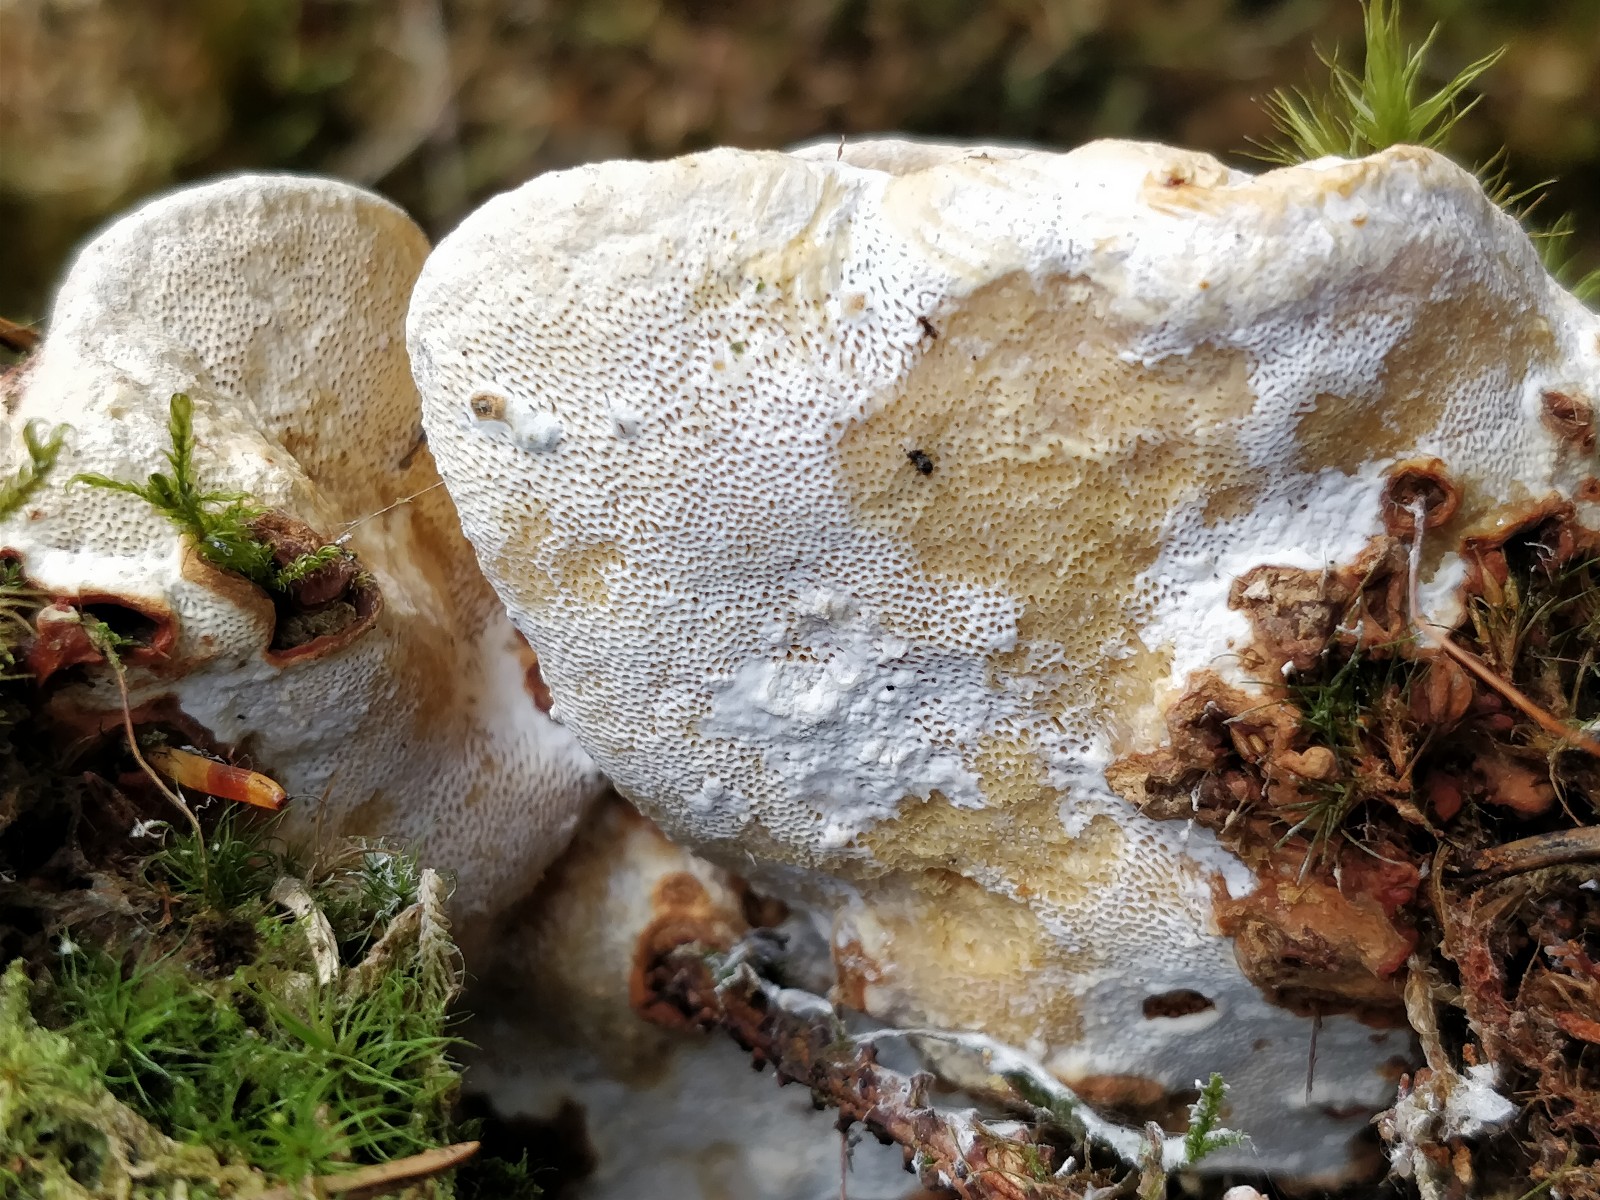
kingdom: Fungi
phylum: Basidiomycota
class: Agaricomycetes
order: Russulales
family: Bondarzewiaceae
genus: Heterobasidion
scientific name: Heterobasidion annosum
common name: almindelig rodfordærver
